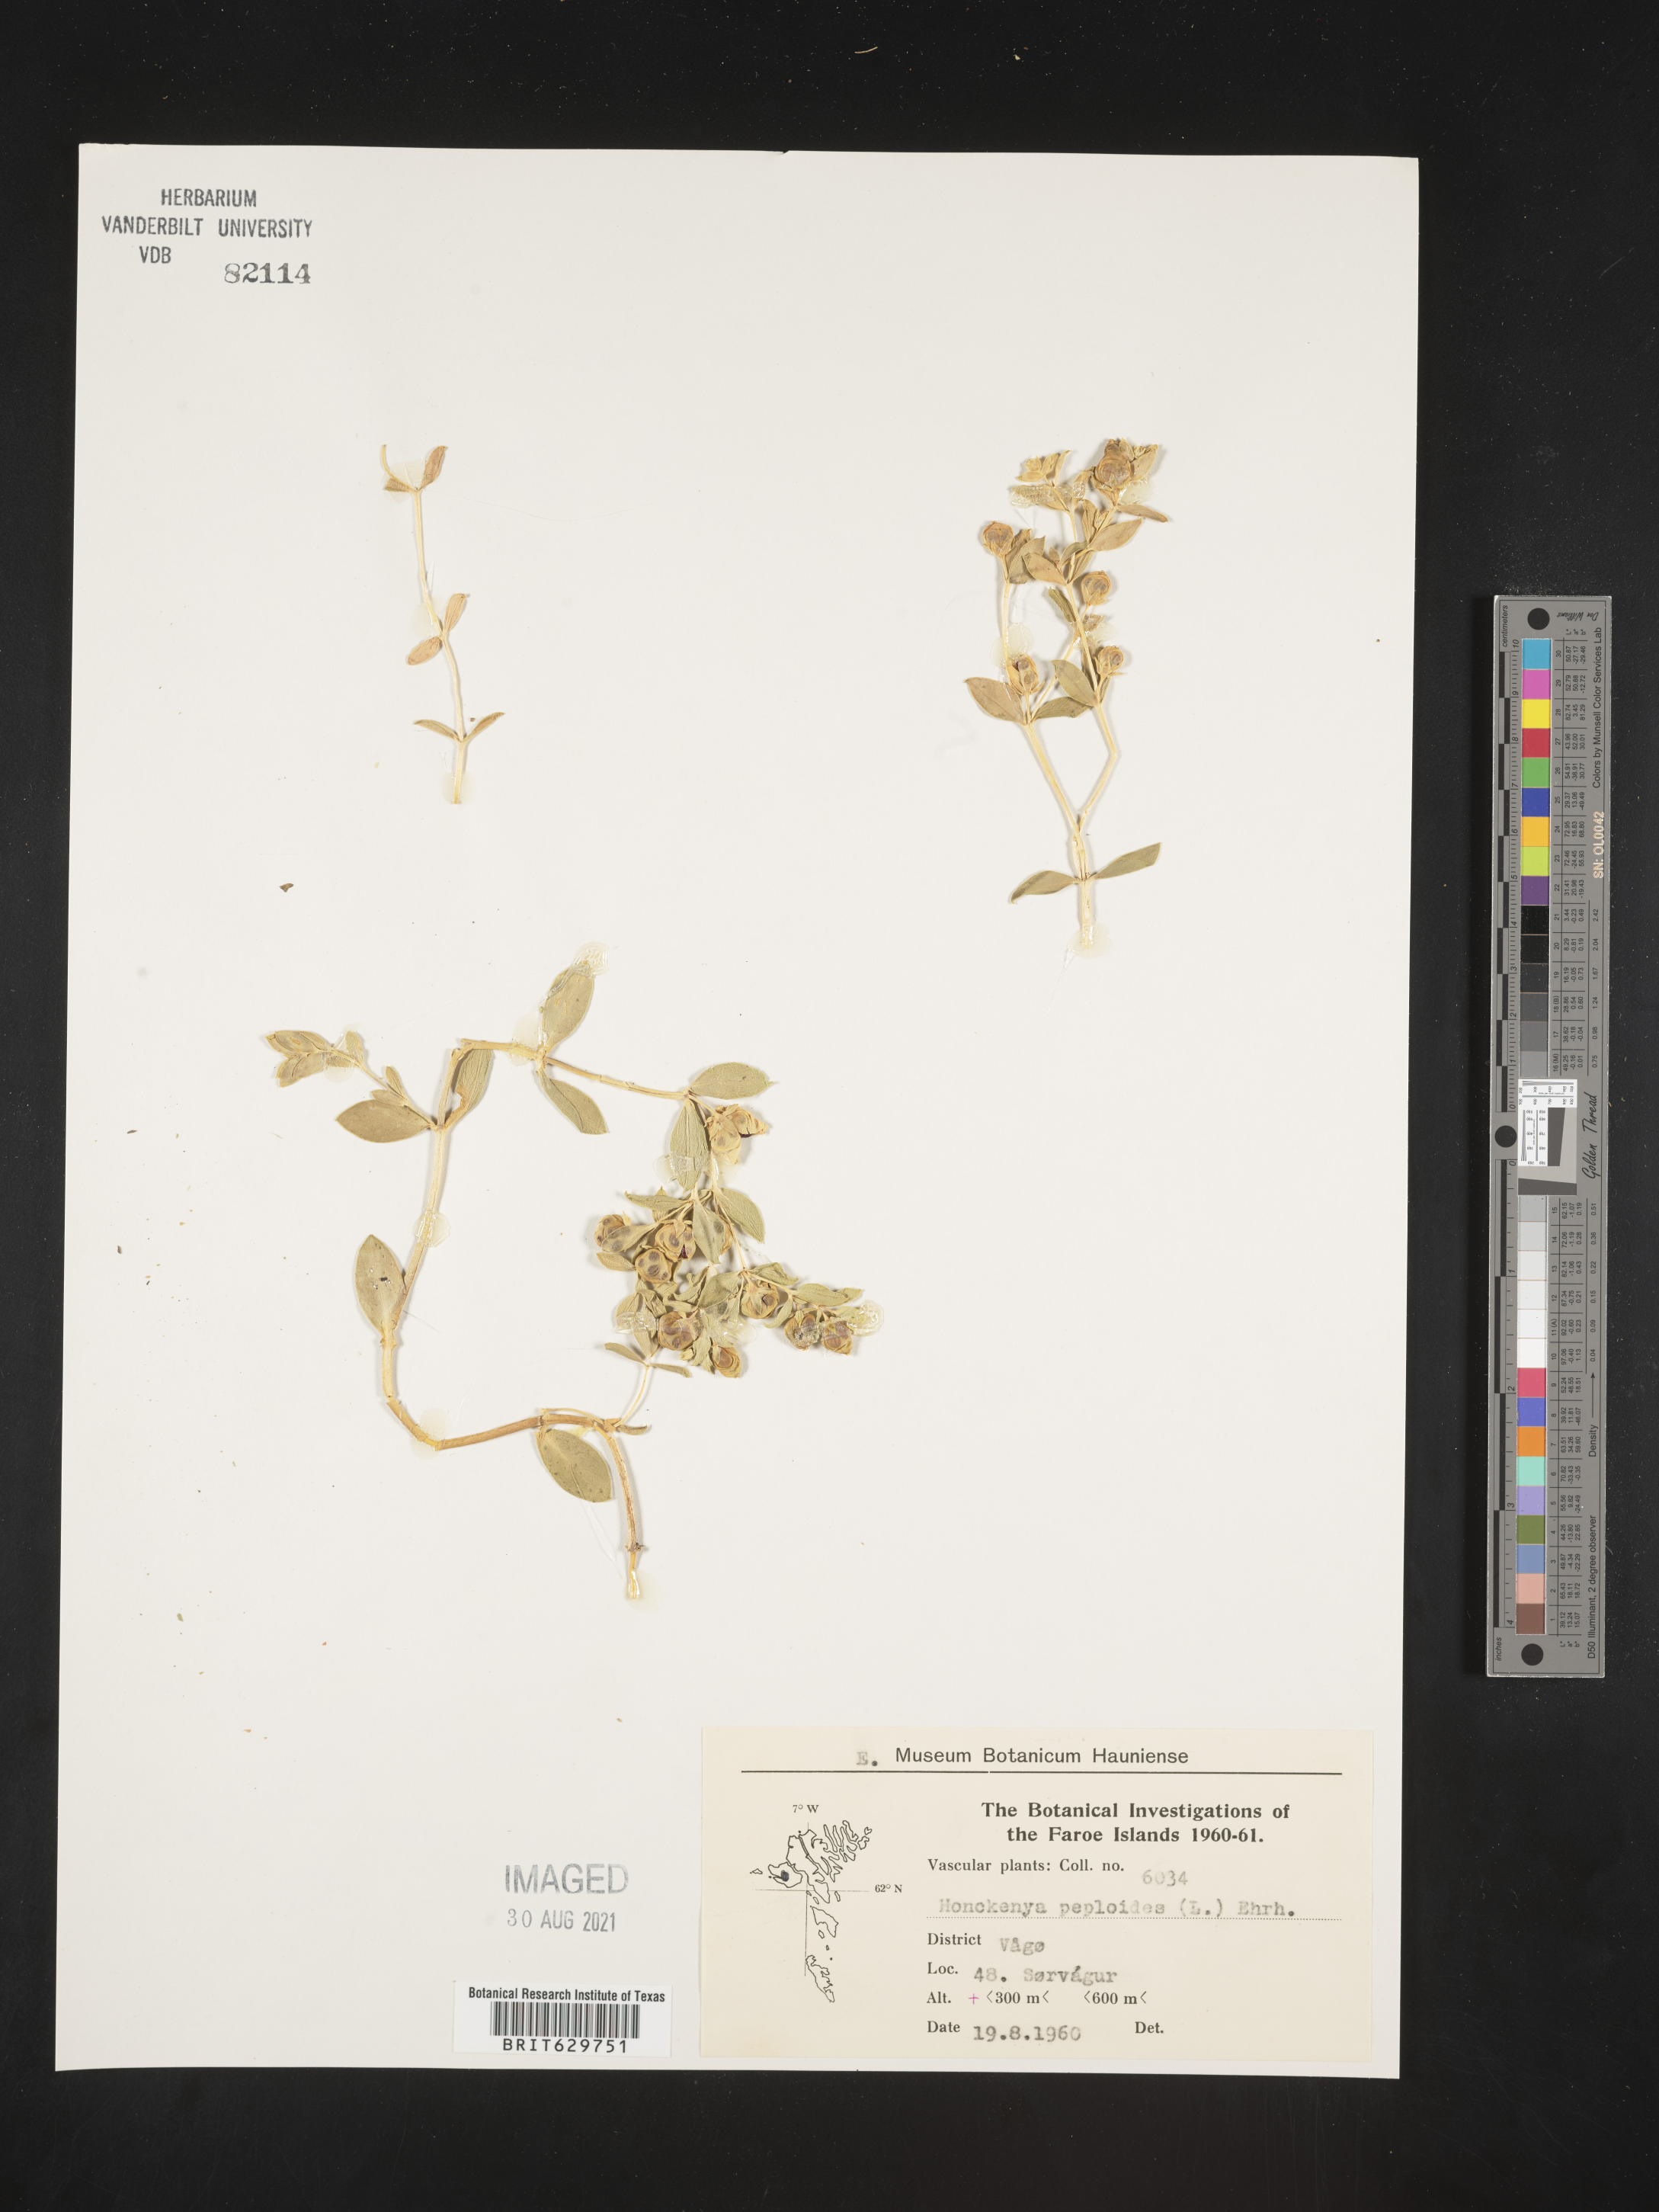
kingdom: Plantae
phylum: Tracheophyta
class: Magnoliopsida
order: Caryophyllales
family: Caryophyllaceae
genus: Honckenya
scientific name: Honckenya peploides
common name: Sea sandwort
